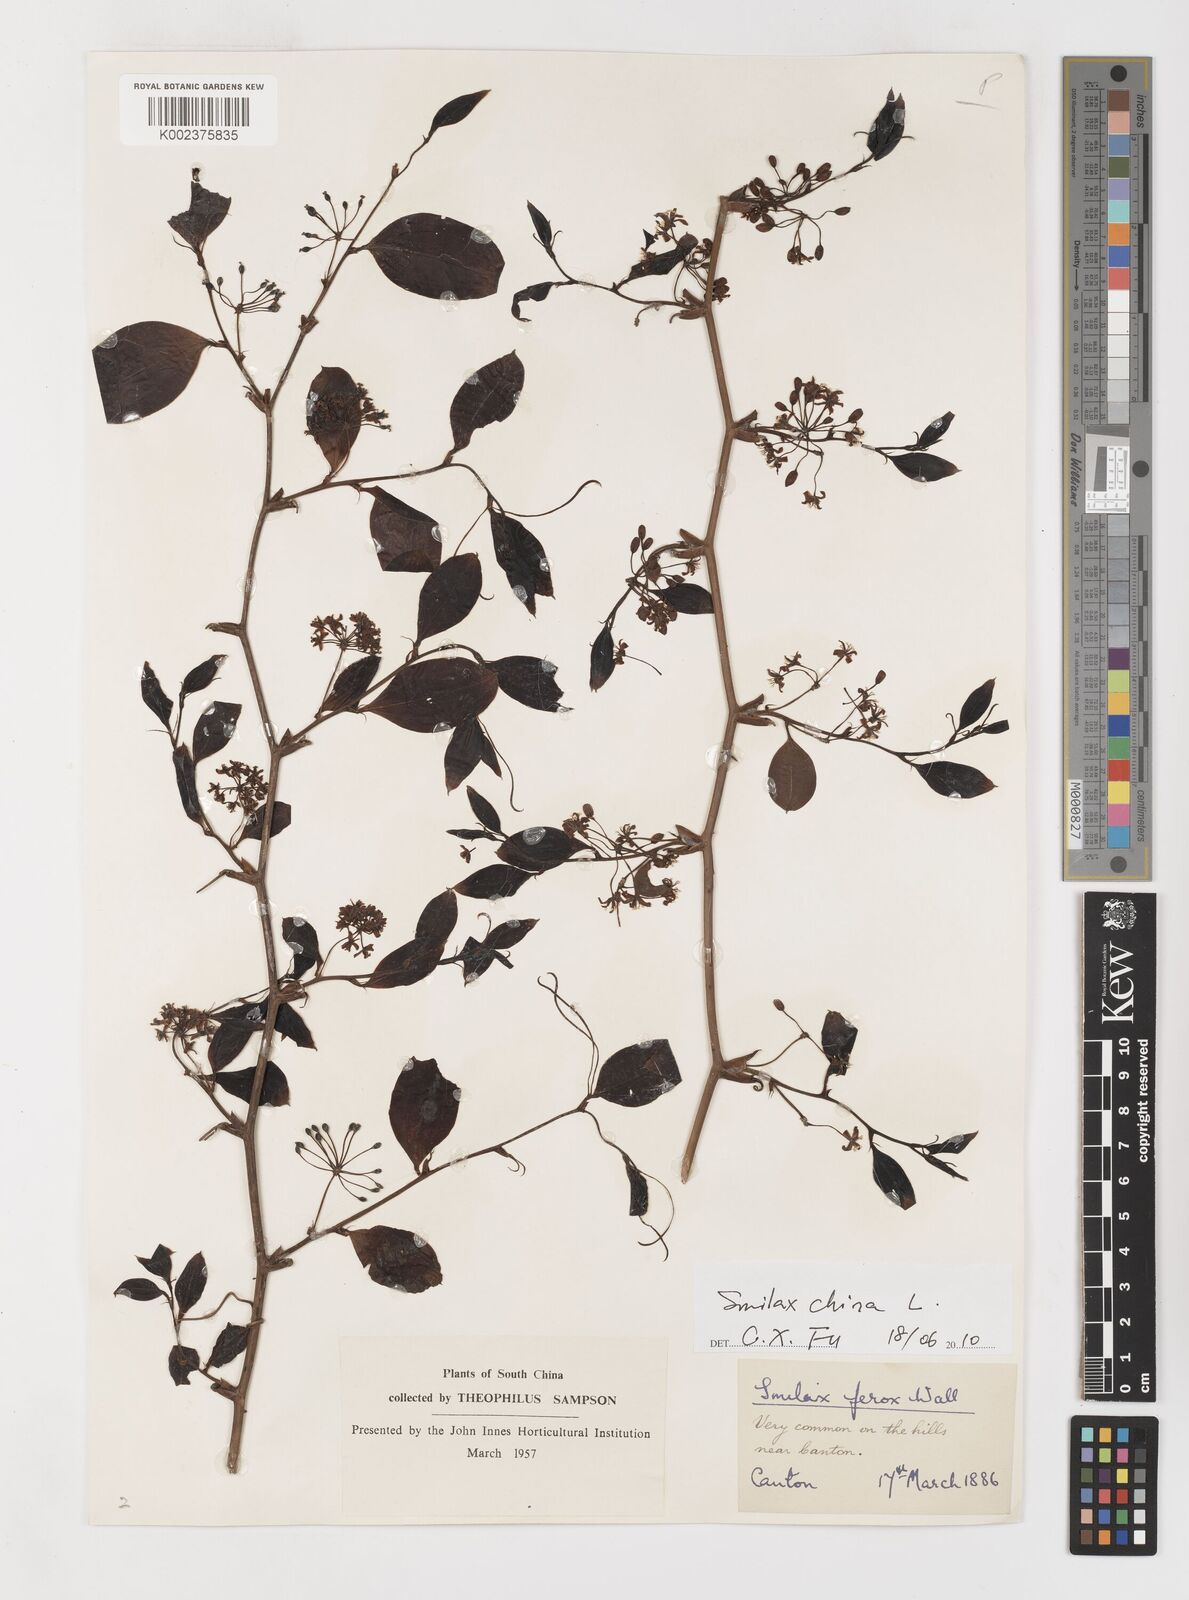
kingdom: Plantae
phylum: Tracheophyta
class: Liliopsida
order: Liliales
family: Smilacaceae
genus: Smilax
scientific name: Smilax china
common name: Chinaroot
